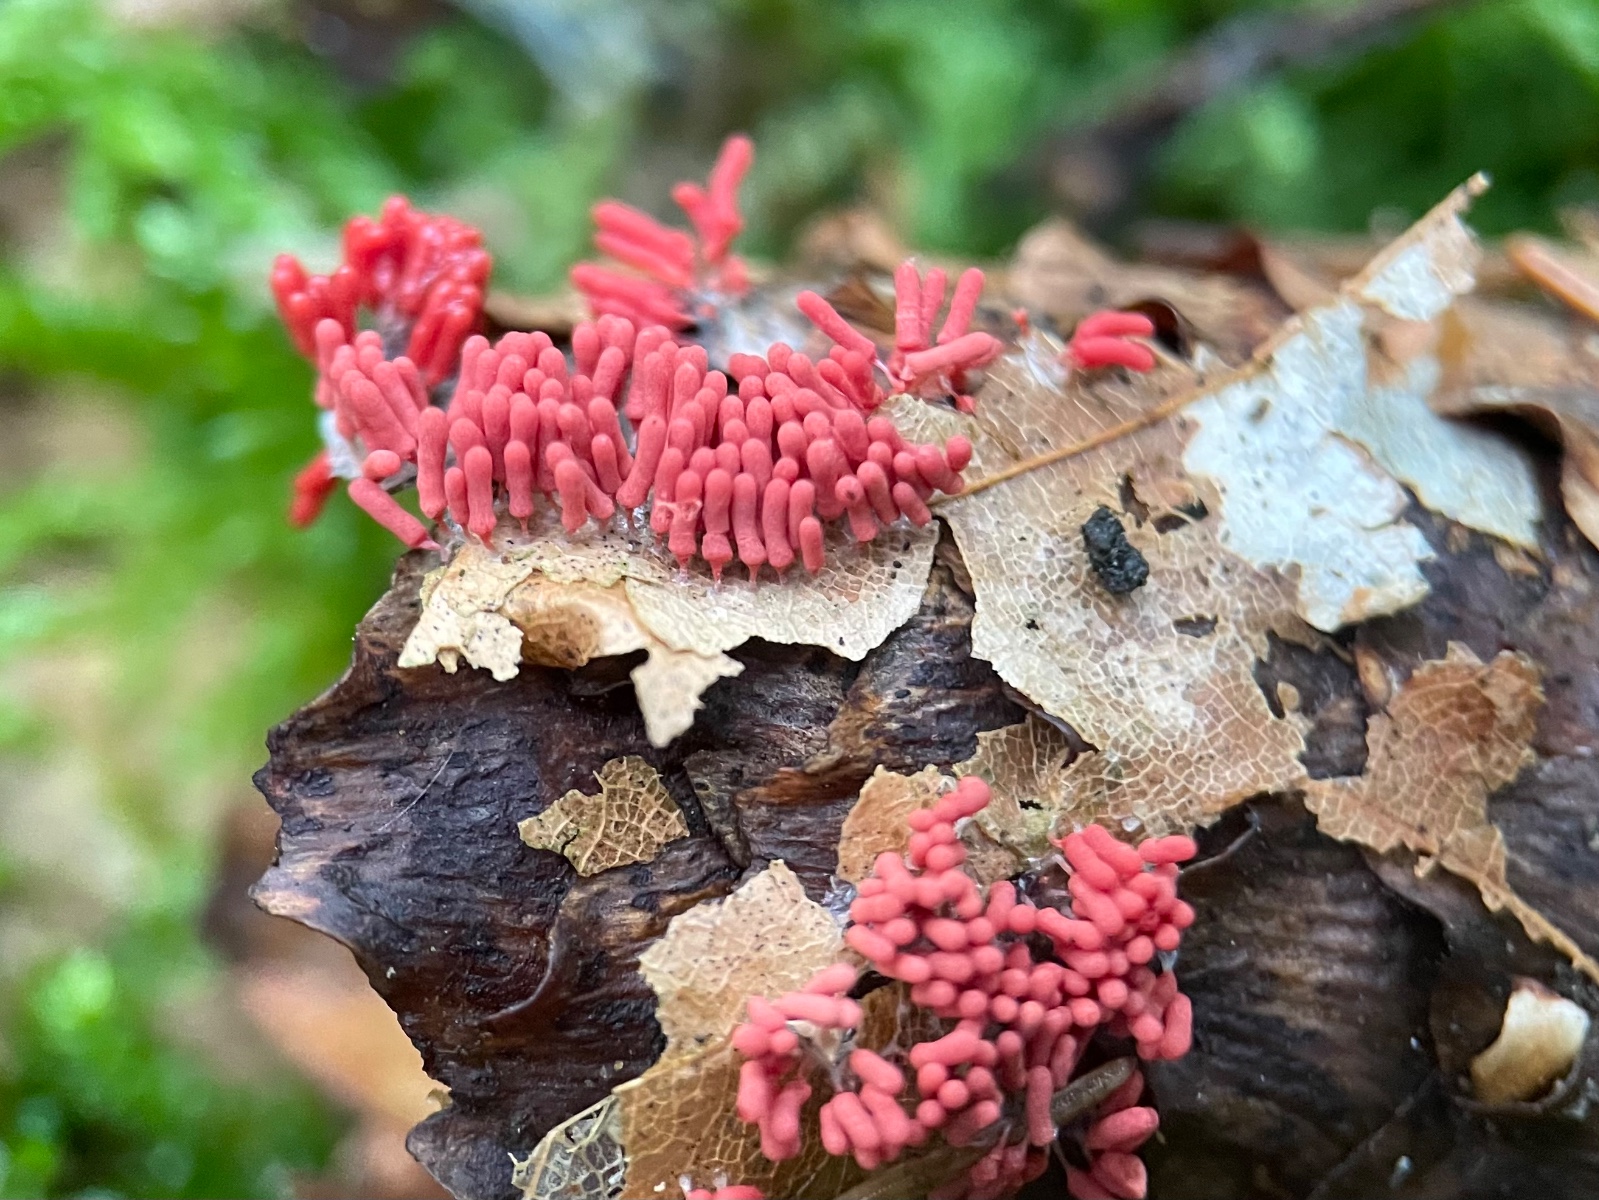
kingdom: Protozoa
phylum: Amoebozoa
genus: Arcyria
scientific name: Arcyria
